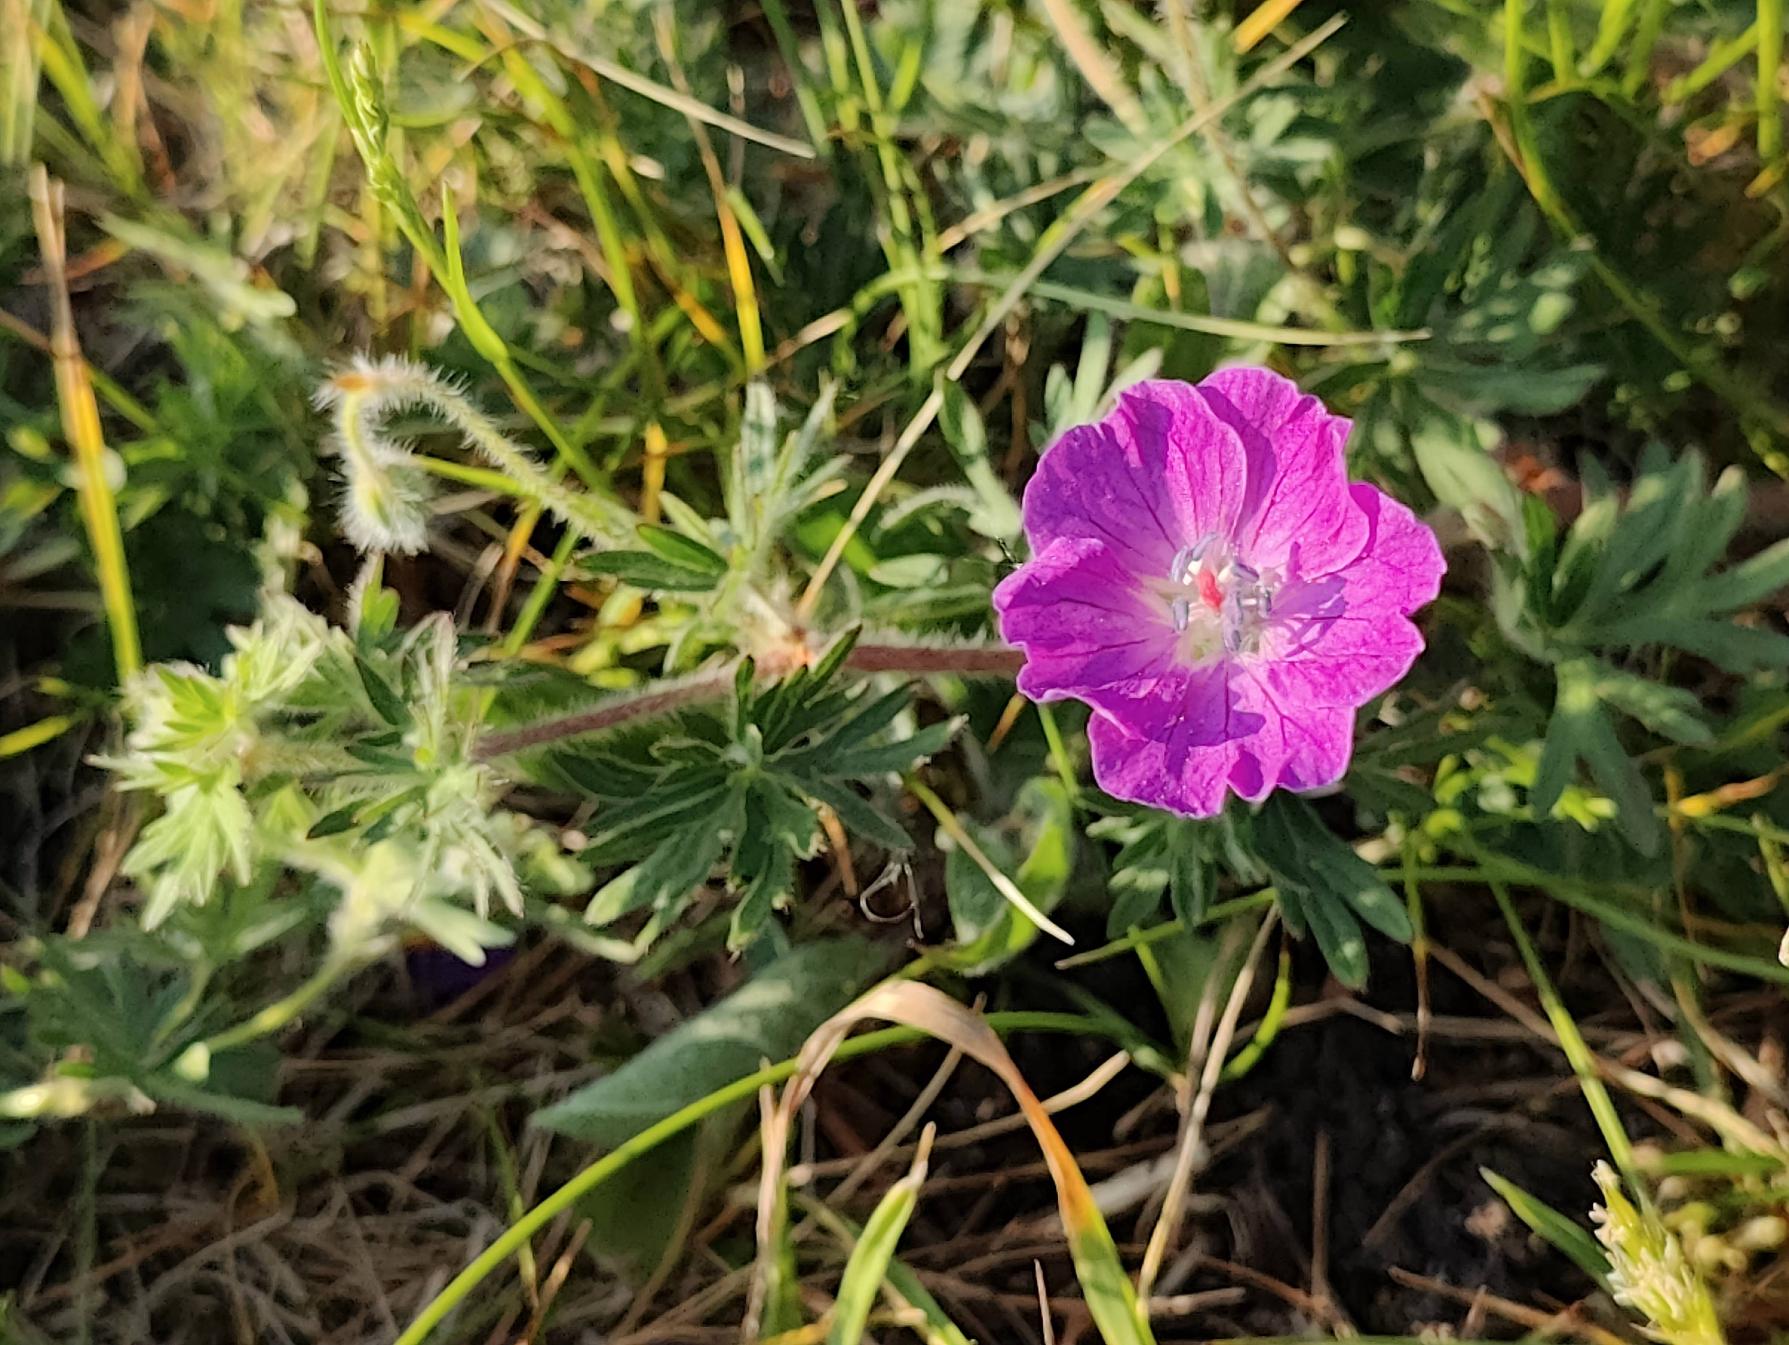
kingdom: Plantae
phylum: Tracheophyta
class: Magnoliopsida
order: Geraniales
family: Geraniaceae
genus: Geranium
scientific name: Geranium sanguineum
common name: Blodrød storkenæb
